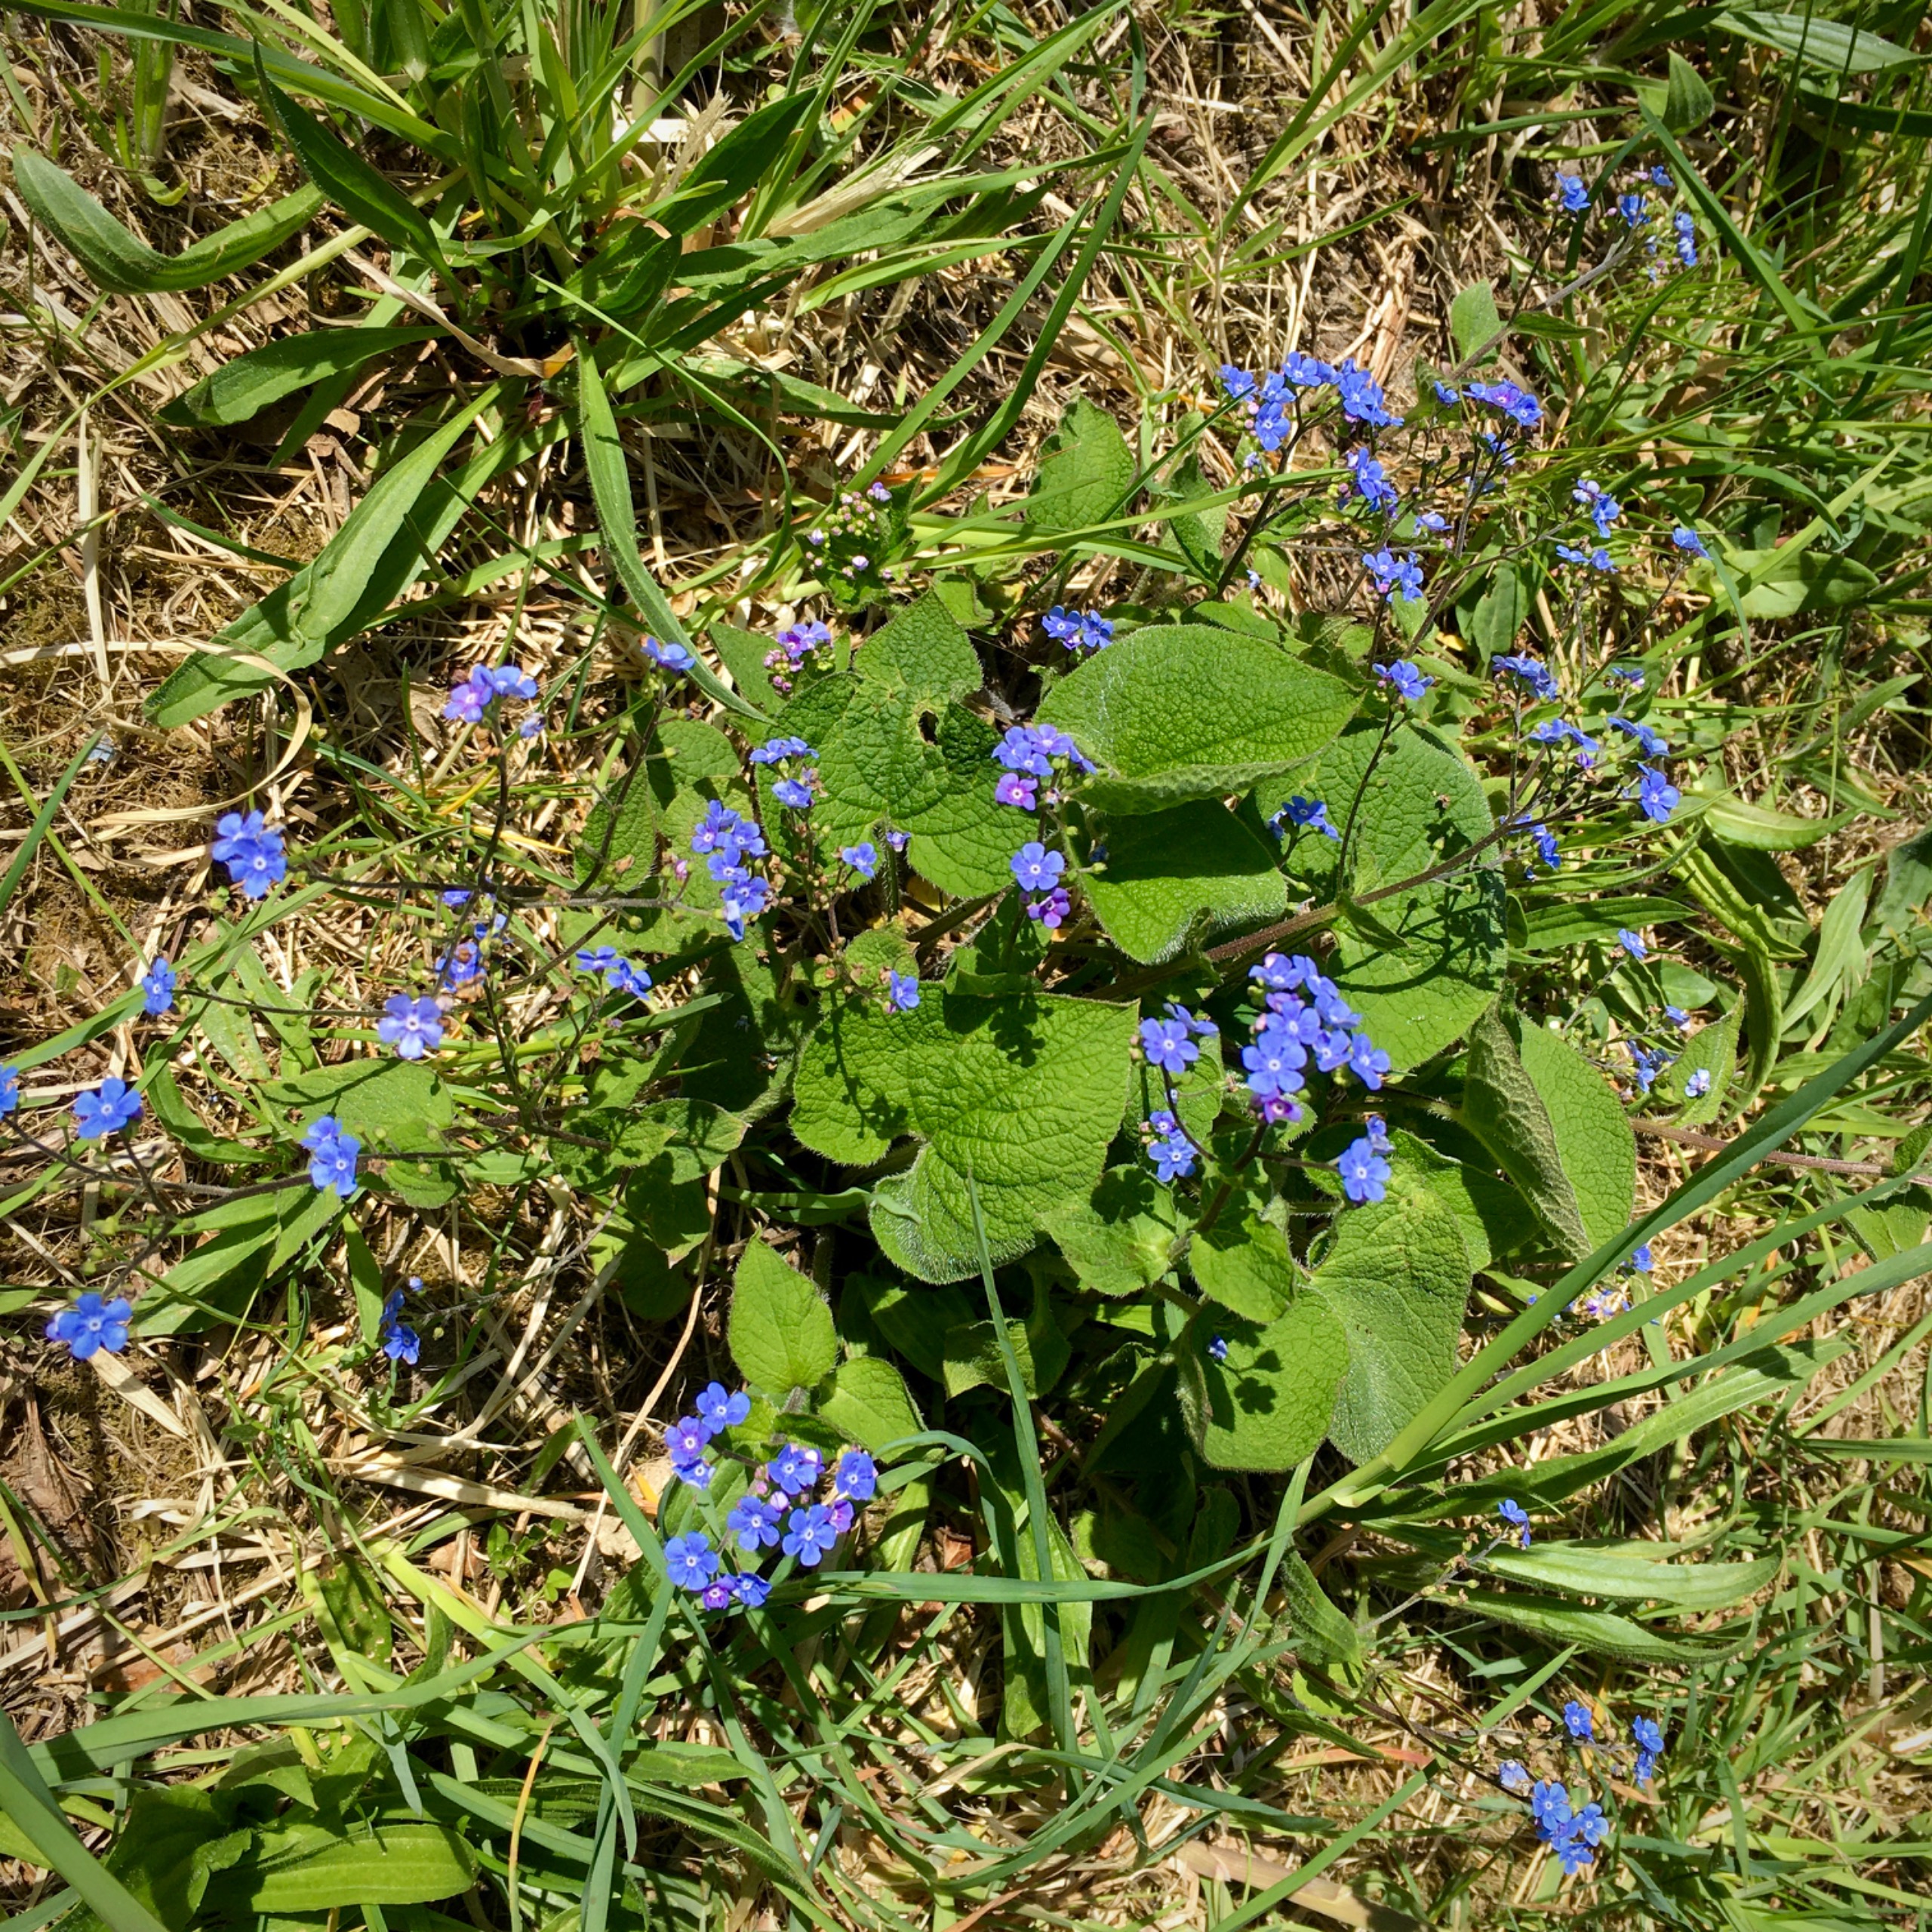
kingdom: Plantae
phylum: Tracheophyta
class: Magnoliopsida
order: Boraginales
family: Boraginaceae
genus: Brunnera
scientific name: Brunnera macrophylla
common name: Kærmindesøster
